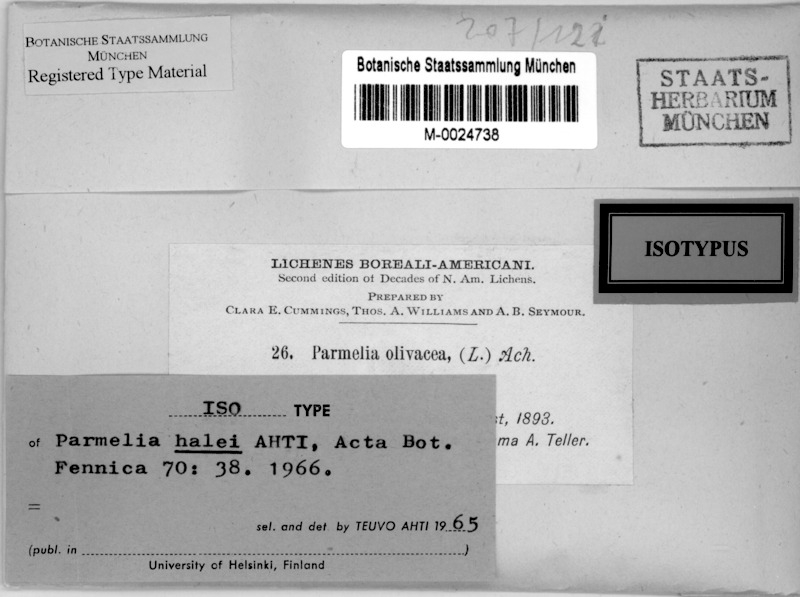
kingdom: Fungi
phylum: Ascomycota
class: Lecanoromycetes
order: Lecanorales
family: Parmeliaceae
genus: Melanohalea
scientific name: Melanohalea halei
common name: Appalachian tree camouflage lichen
